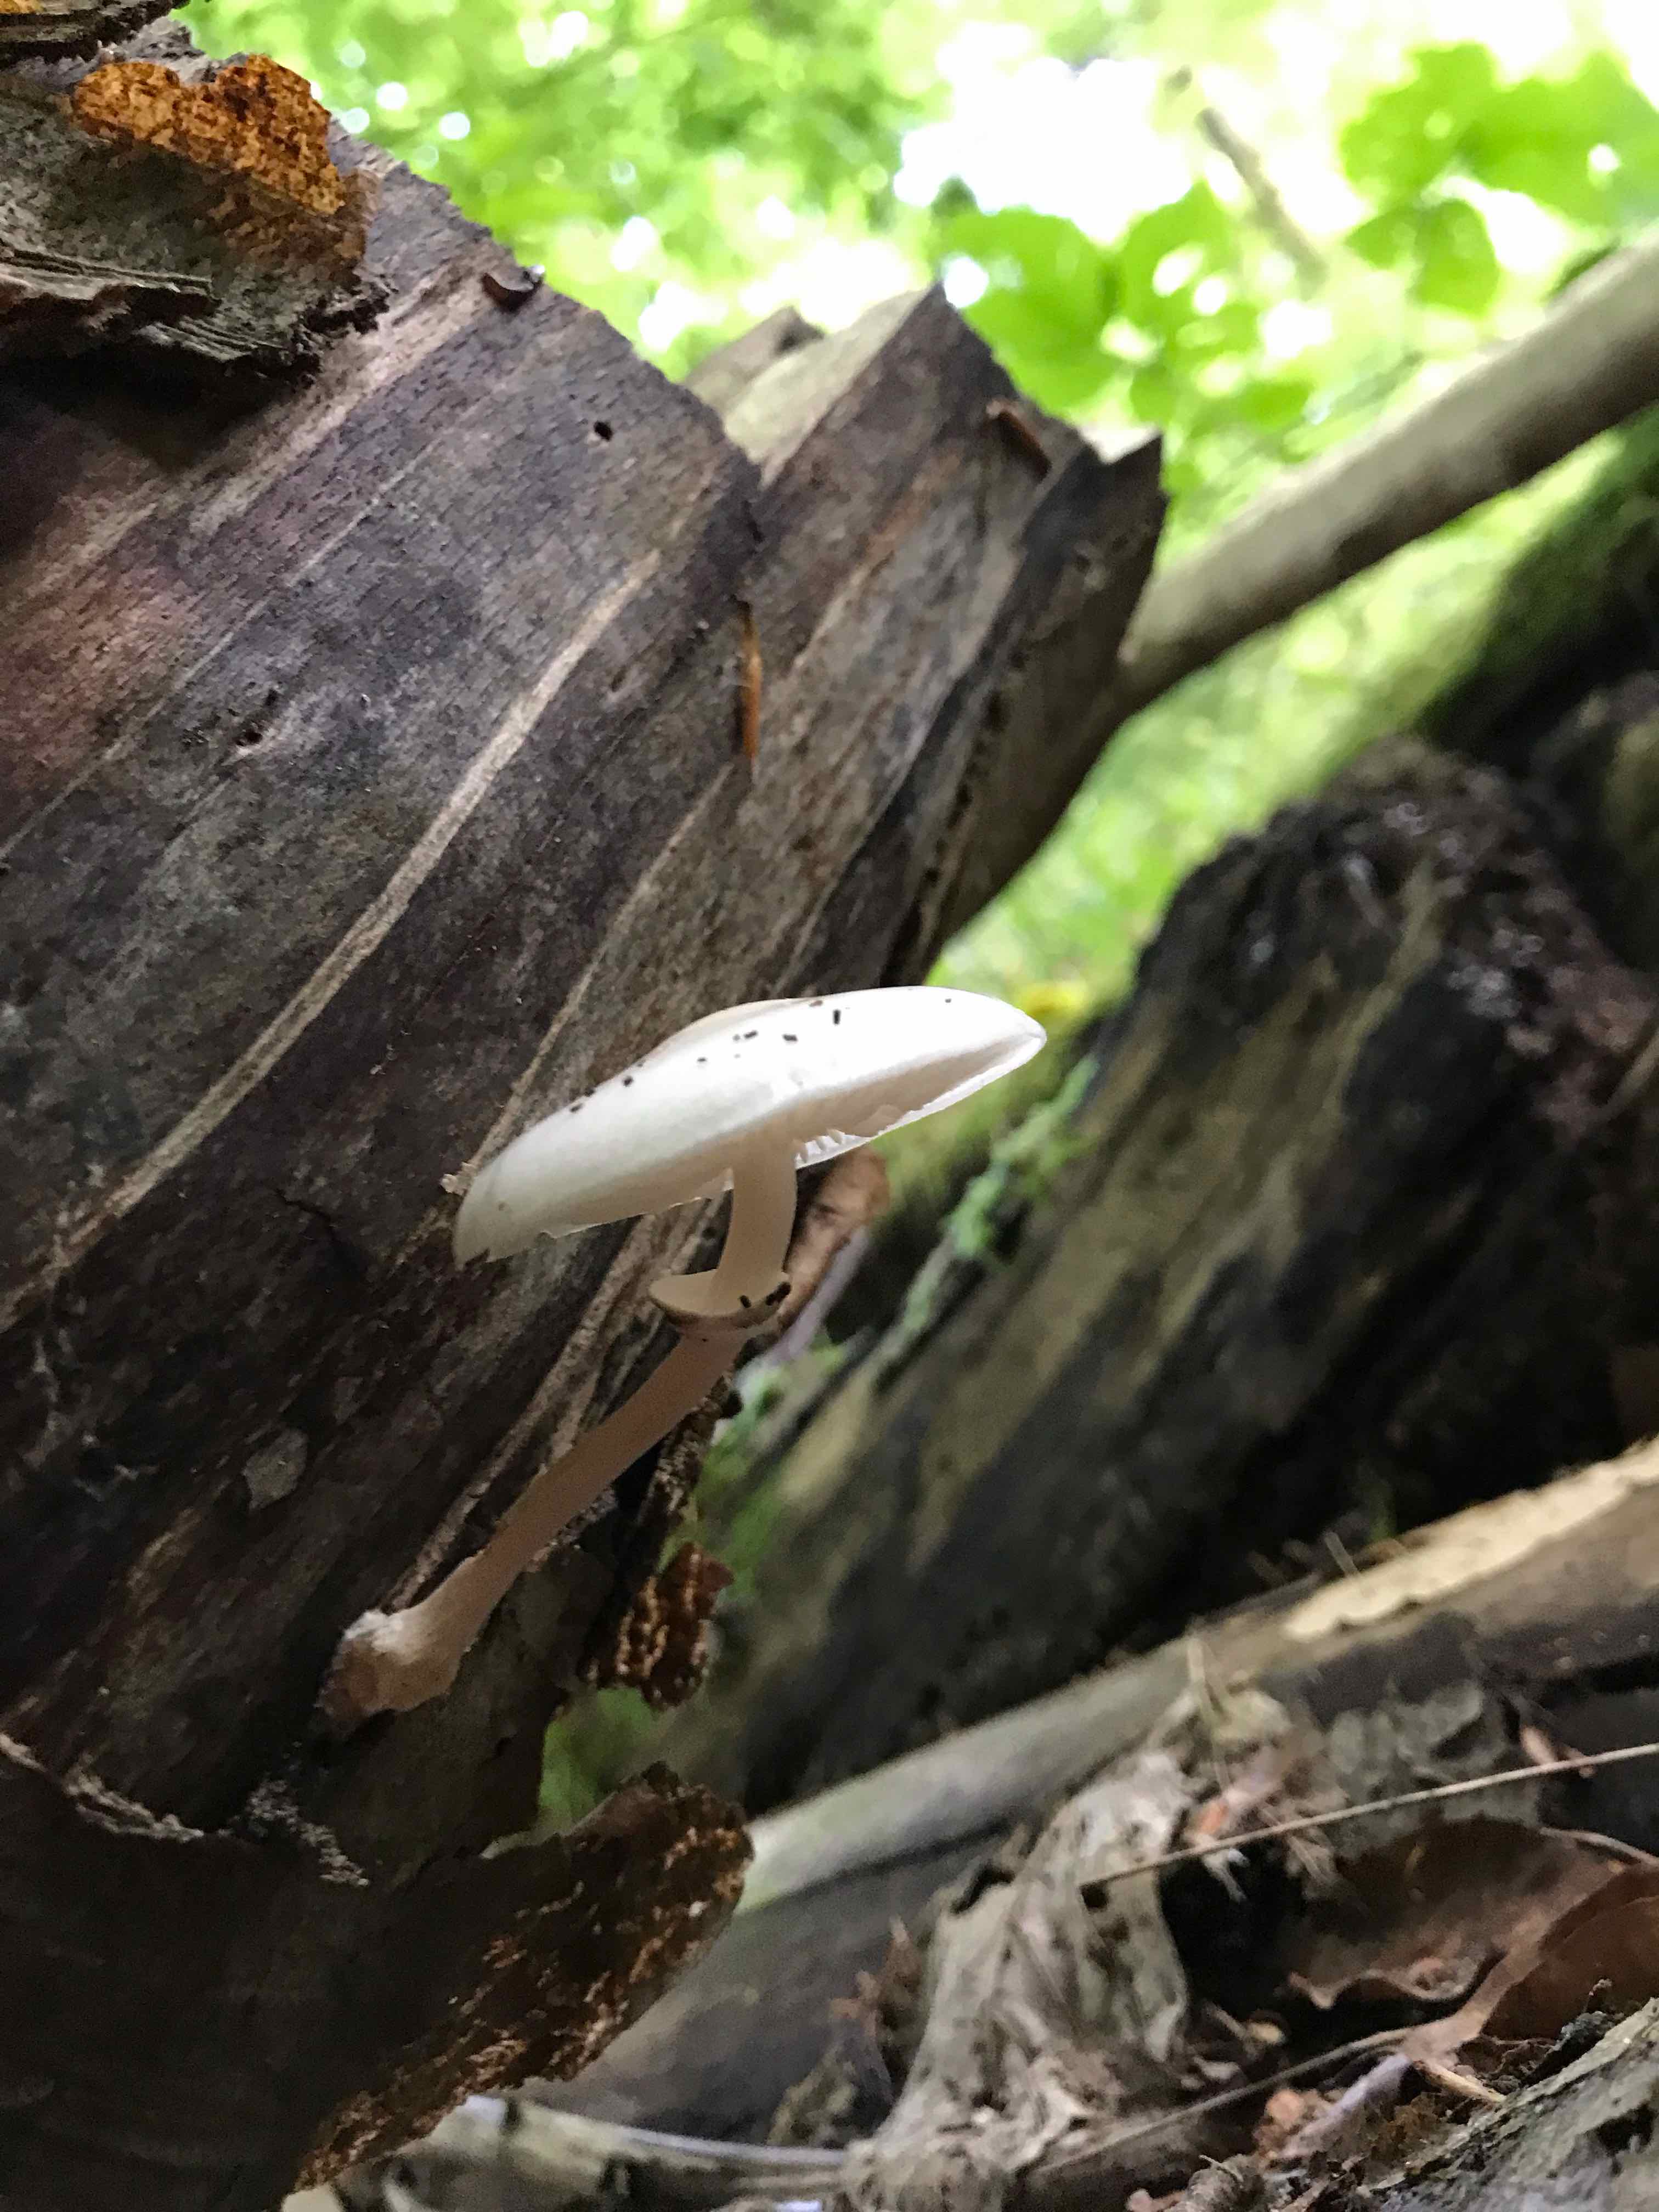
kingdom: Fungi
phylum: Basidiomycota
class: Agaricomycetes
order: Agaricales
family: Physalacriaceae
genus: Mucidula
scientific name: Mucidula mucida
